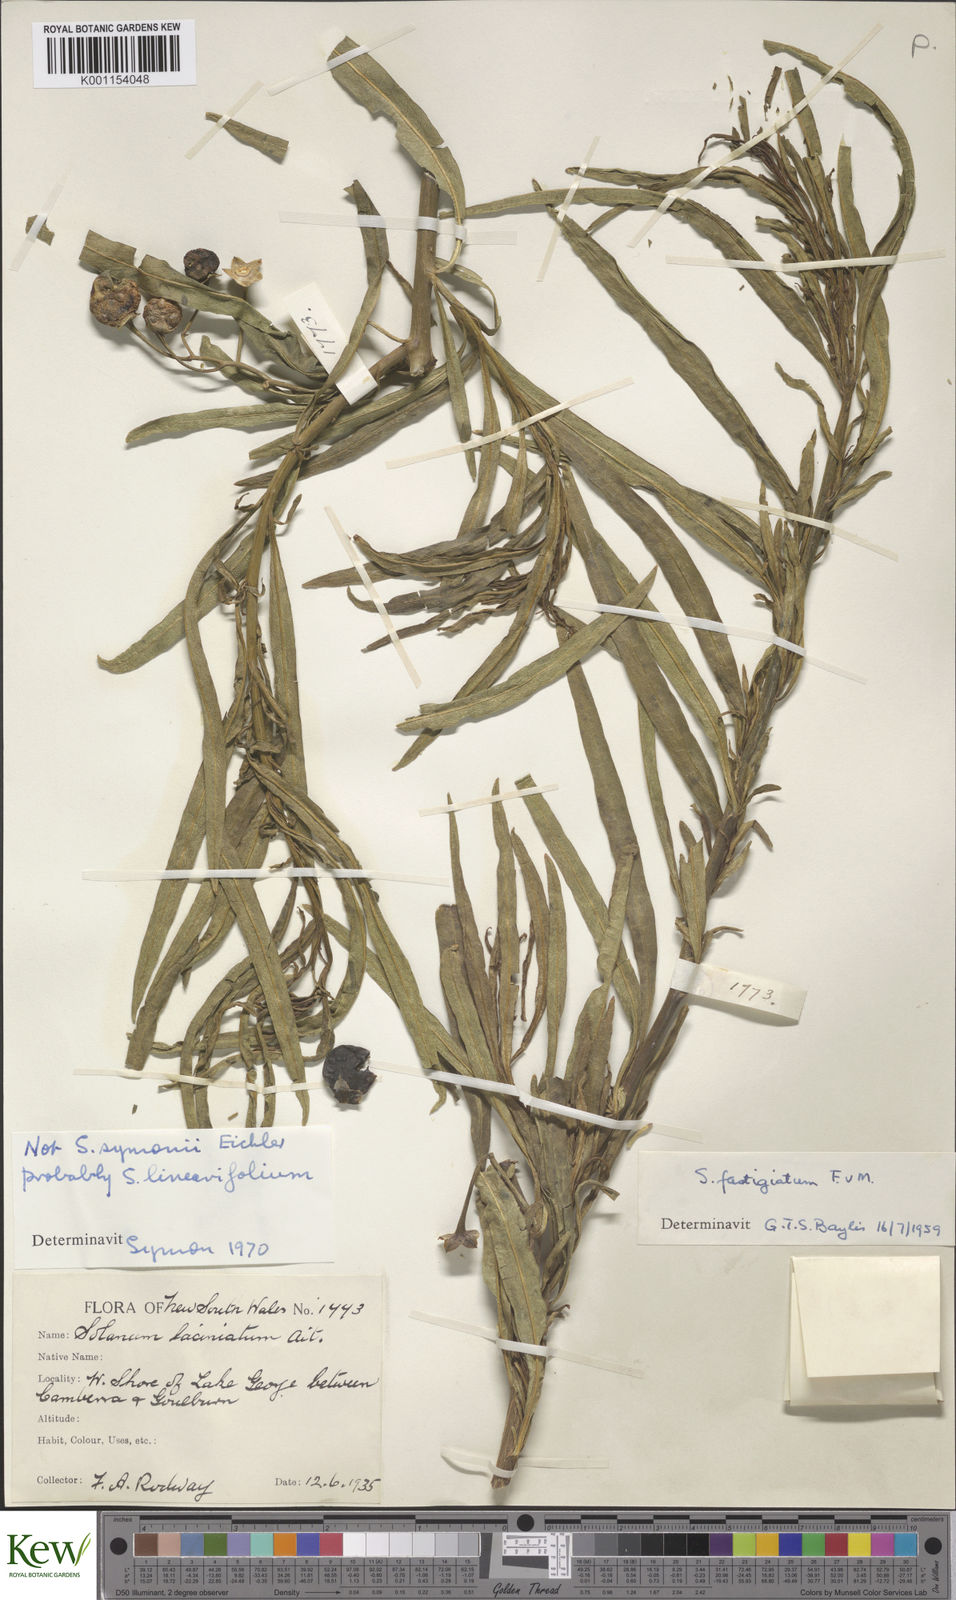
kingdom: Plantae
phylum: Tracheophyta
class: Magnoliopsida
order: Solanales
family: Solanaceae
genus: Solanum
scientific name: Solanum linearifolium
